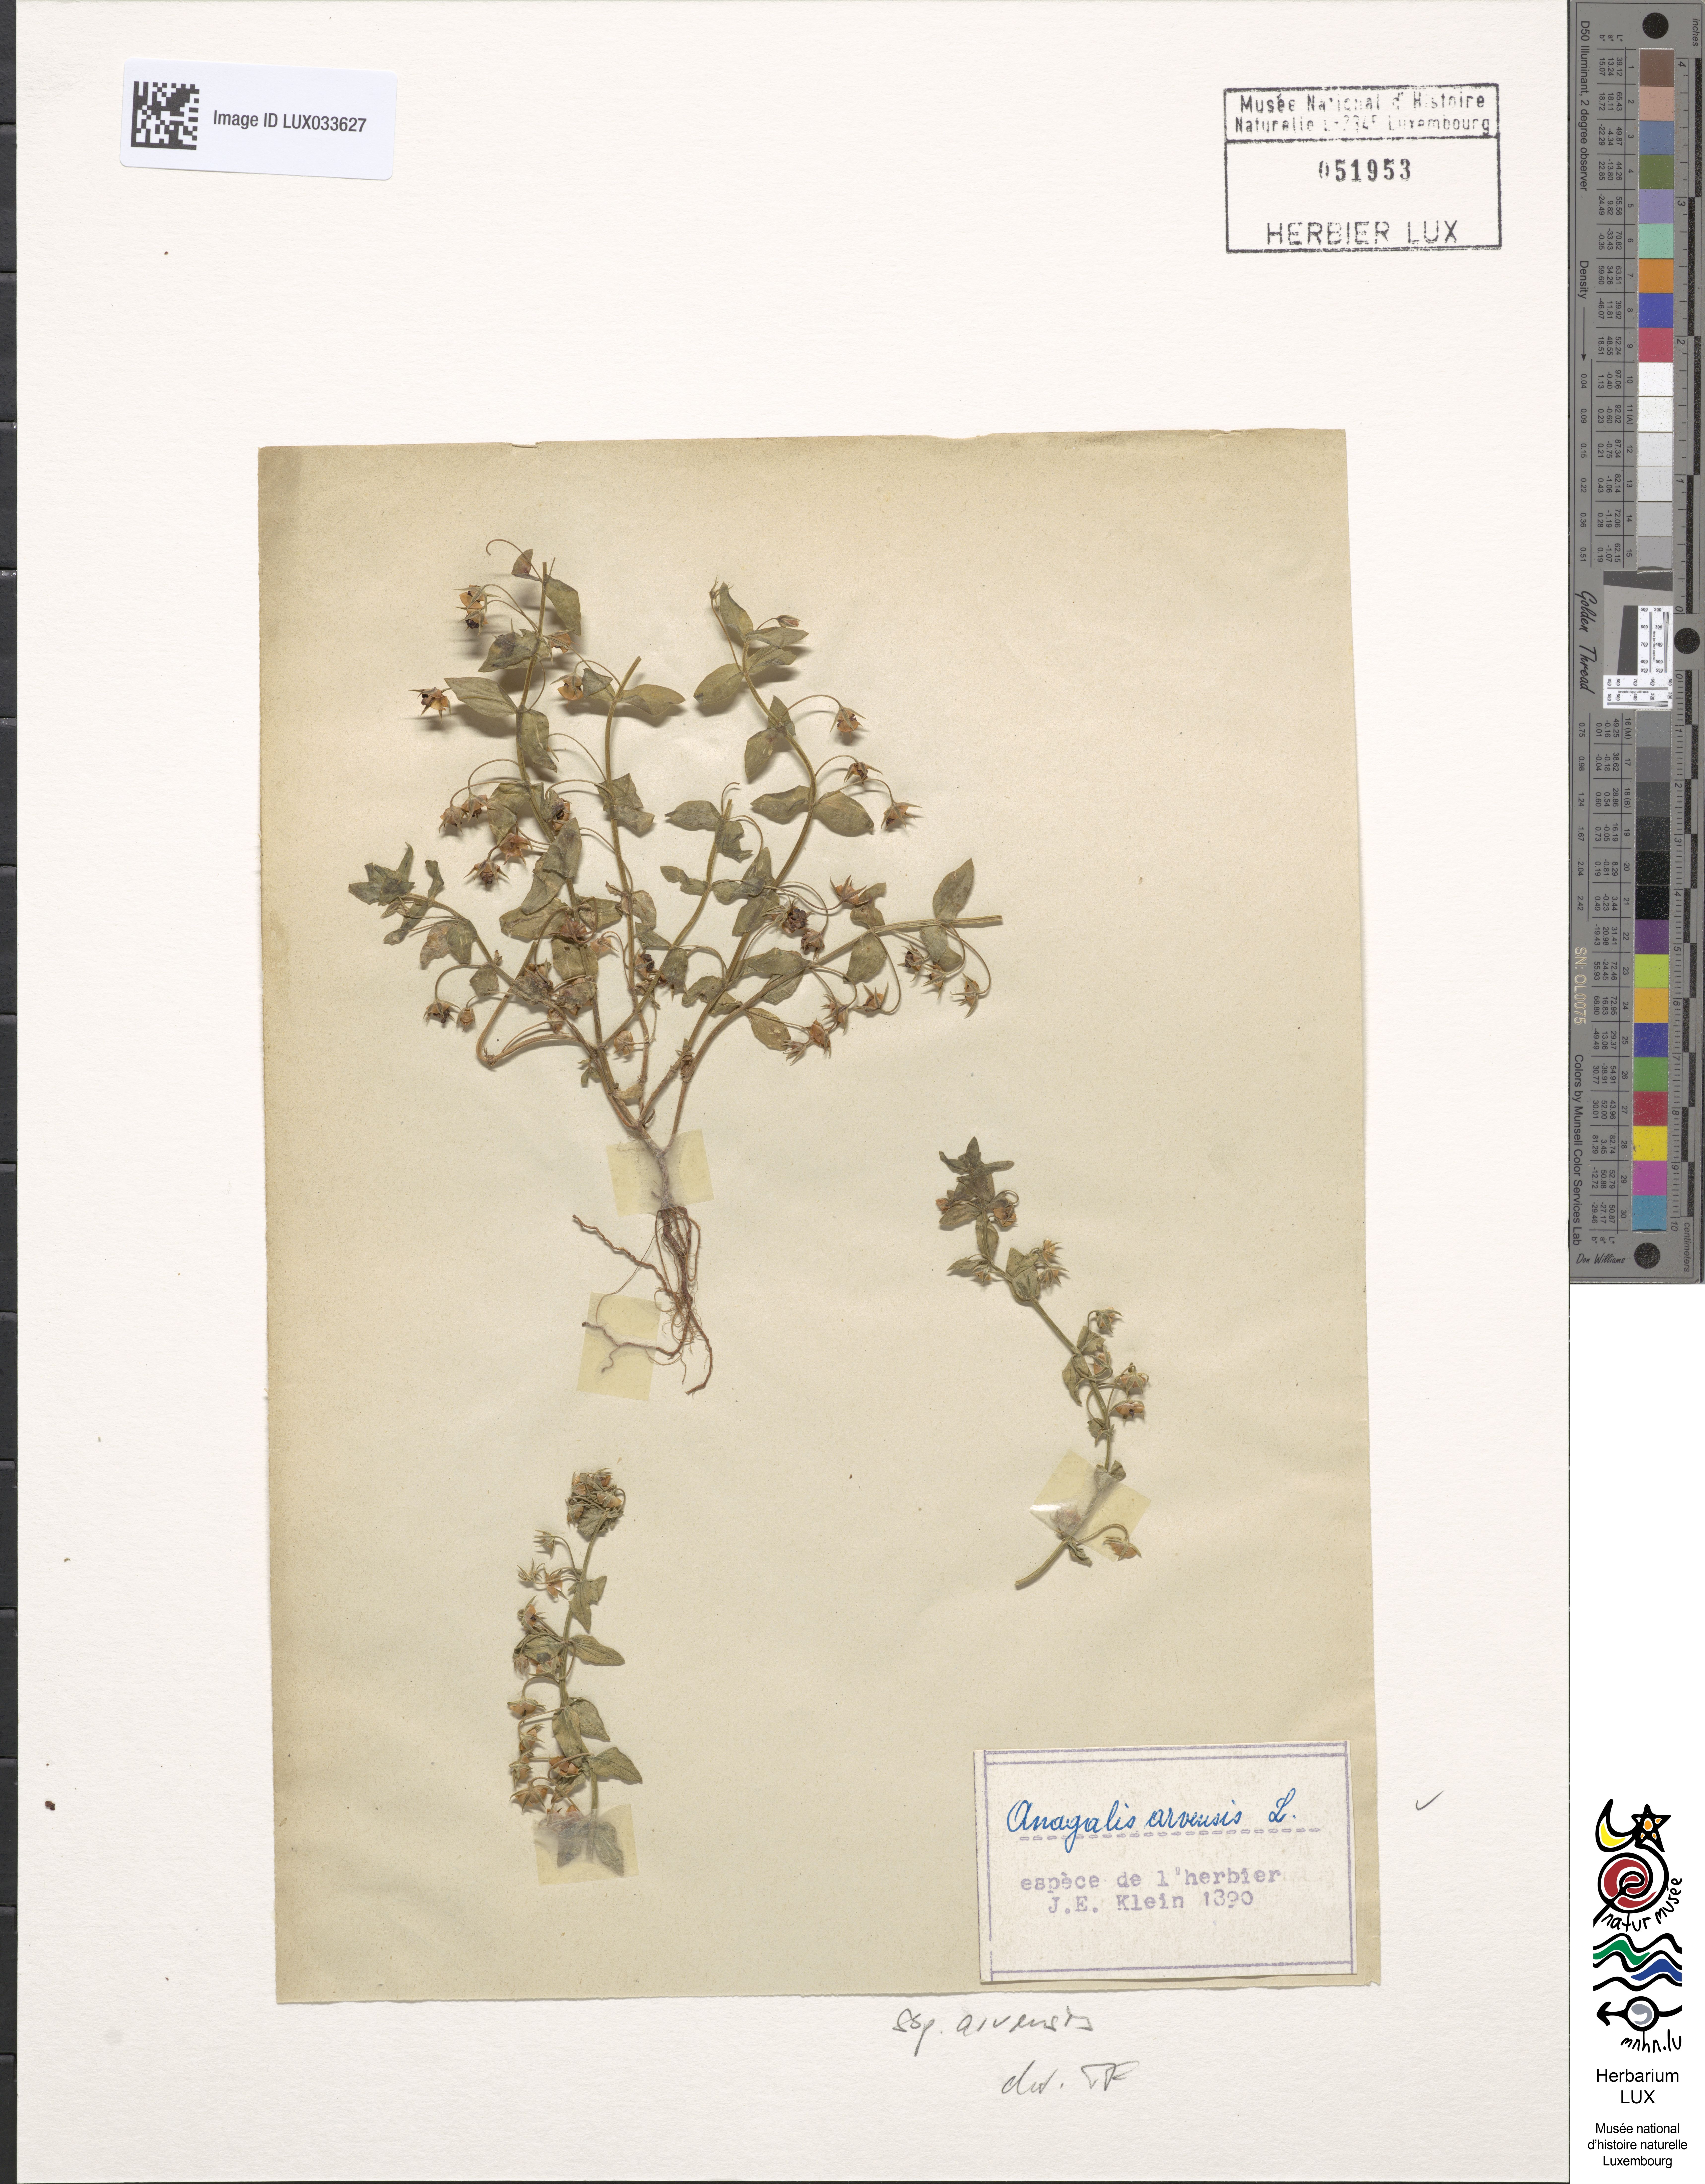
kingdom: Plantae
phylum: Tracheophyta
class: Magnoliopsida
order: Ericales
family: Primulaceae
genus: Lysimachia
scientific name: Lysimachia arvensis
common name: Scarlet pimpernel
